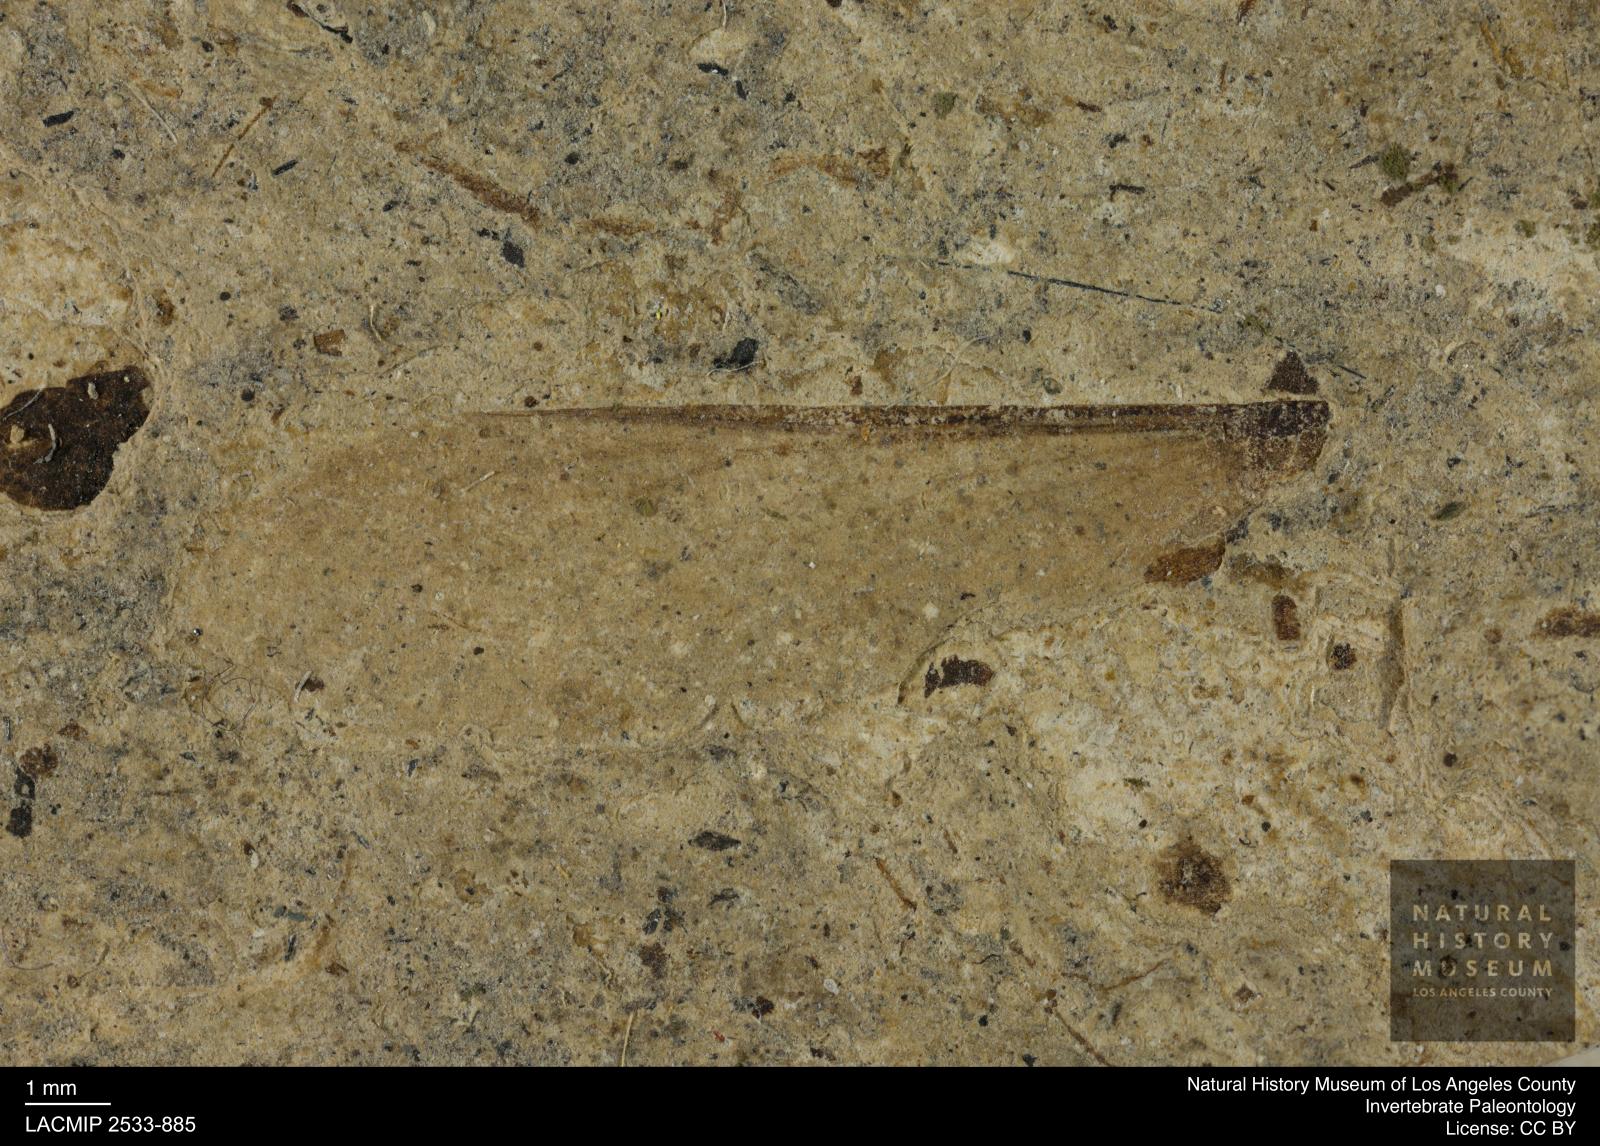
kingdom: Animalia
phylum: Arthropoda
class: Insecta
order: Blattodea
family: Hodotermitidae
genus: Ulmeriella
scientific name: Ulmeriella bauckhorni
